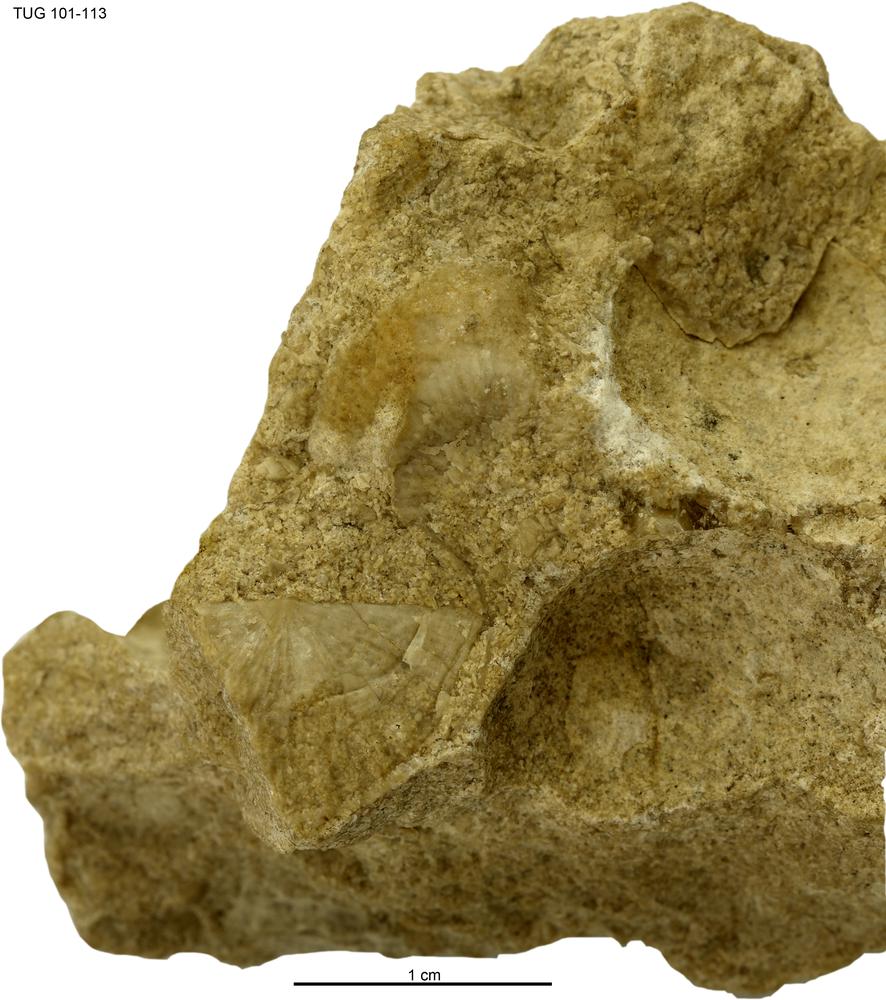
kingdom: Animalia
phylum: Brachiopoda
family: Strophomenidae
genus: Holtedahlina
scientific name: Holtedahlina
